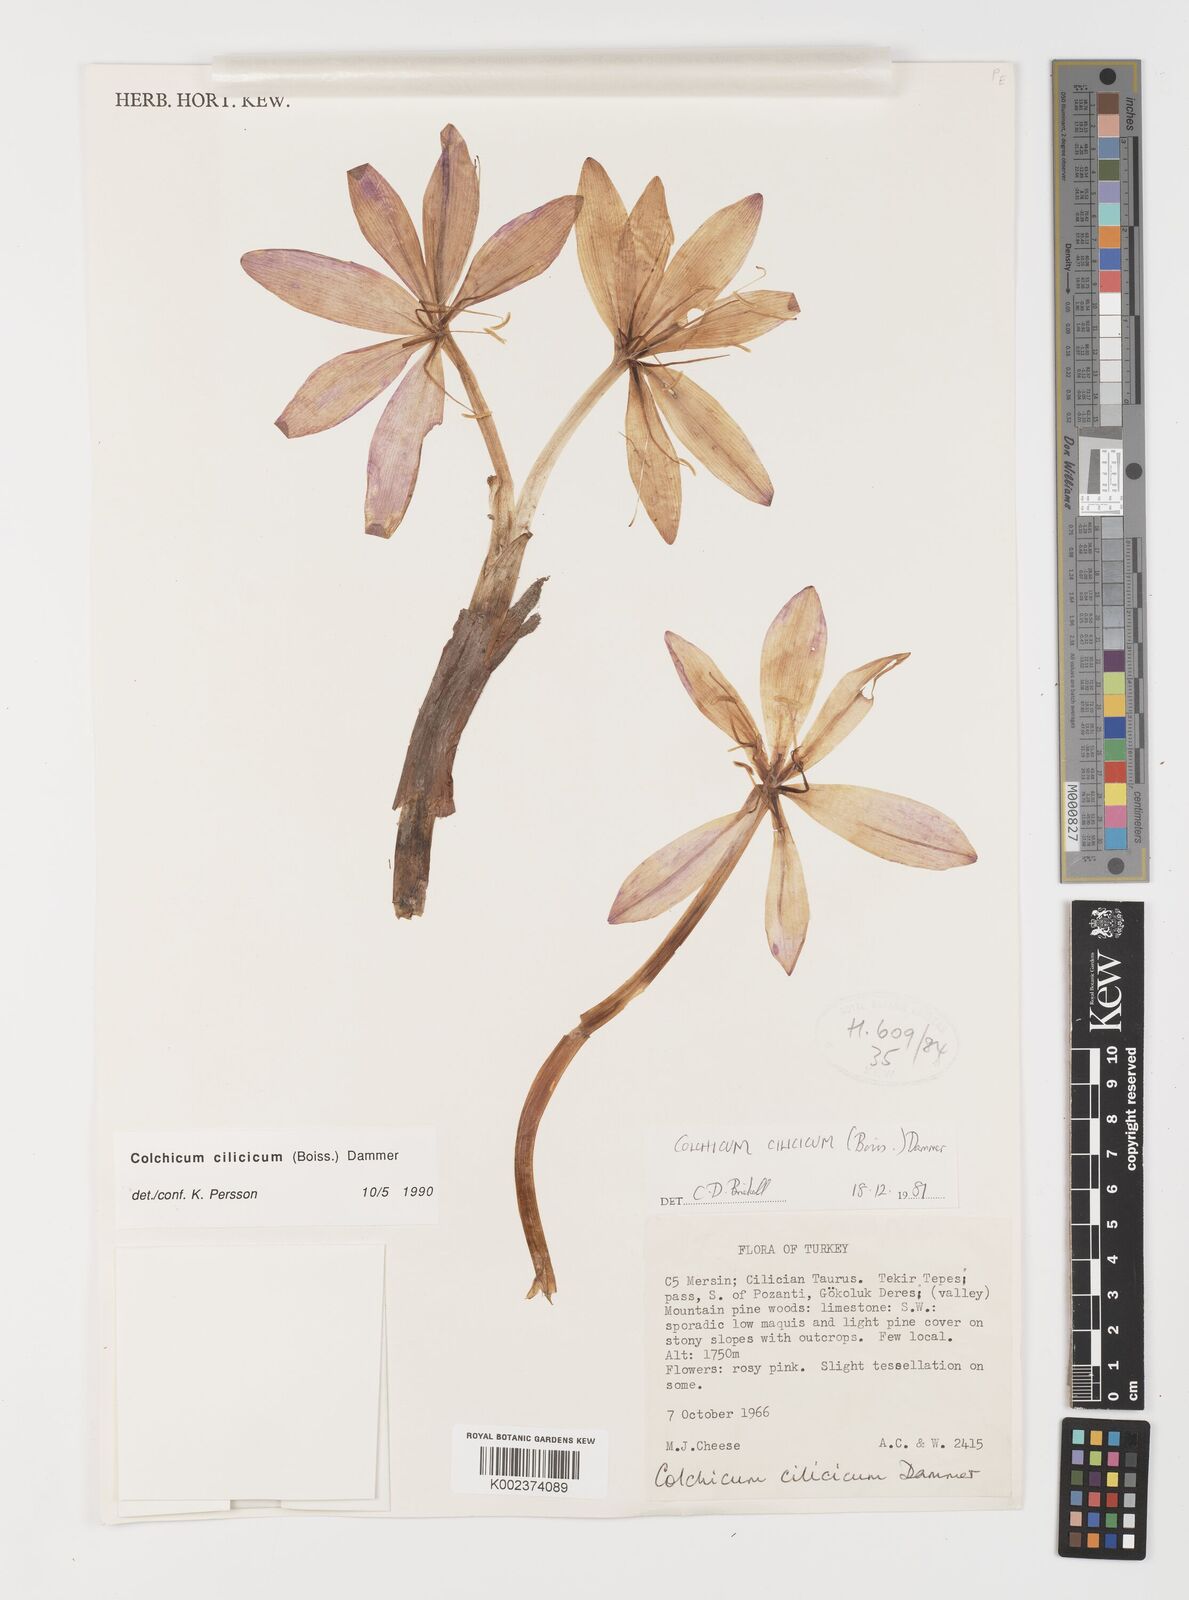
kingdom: Plantae
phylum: Tracheophyta
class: Liliopsida
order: Liliales
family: Colchicaceae
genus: Colchicum
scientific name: Colchicum cilicicum
